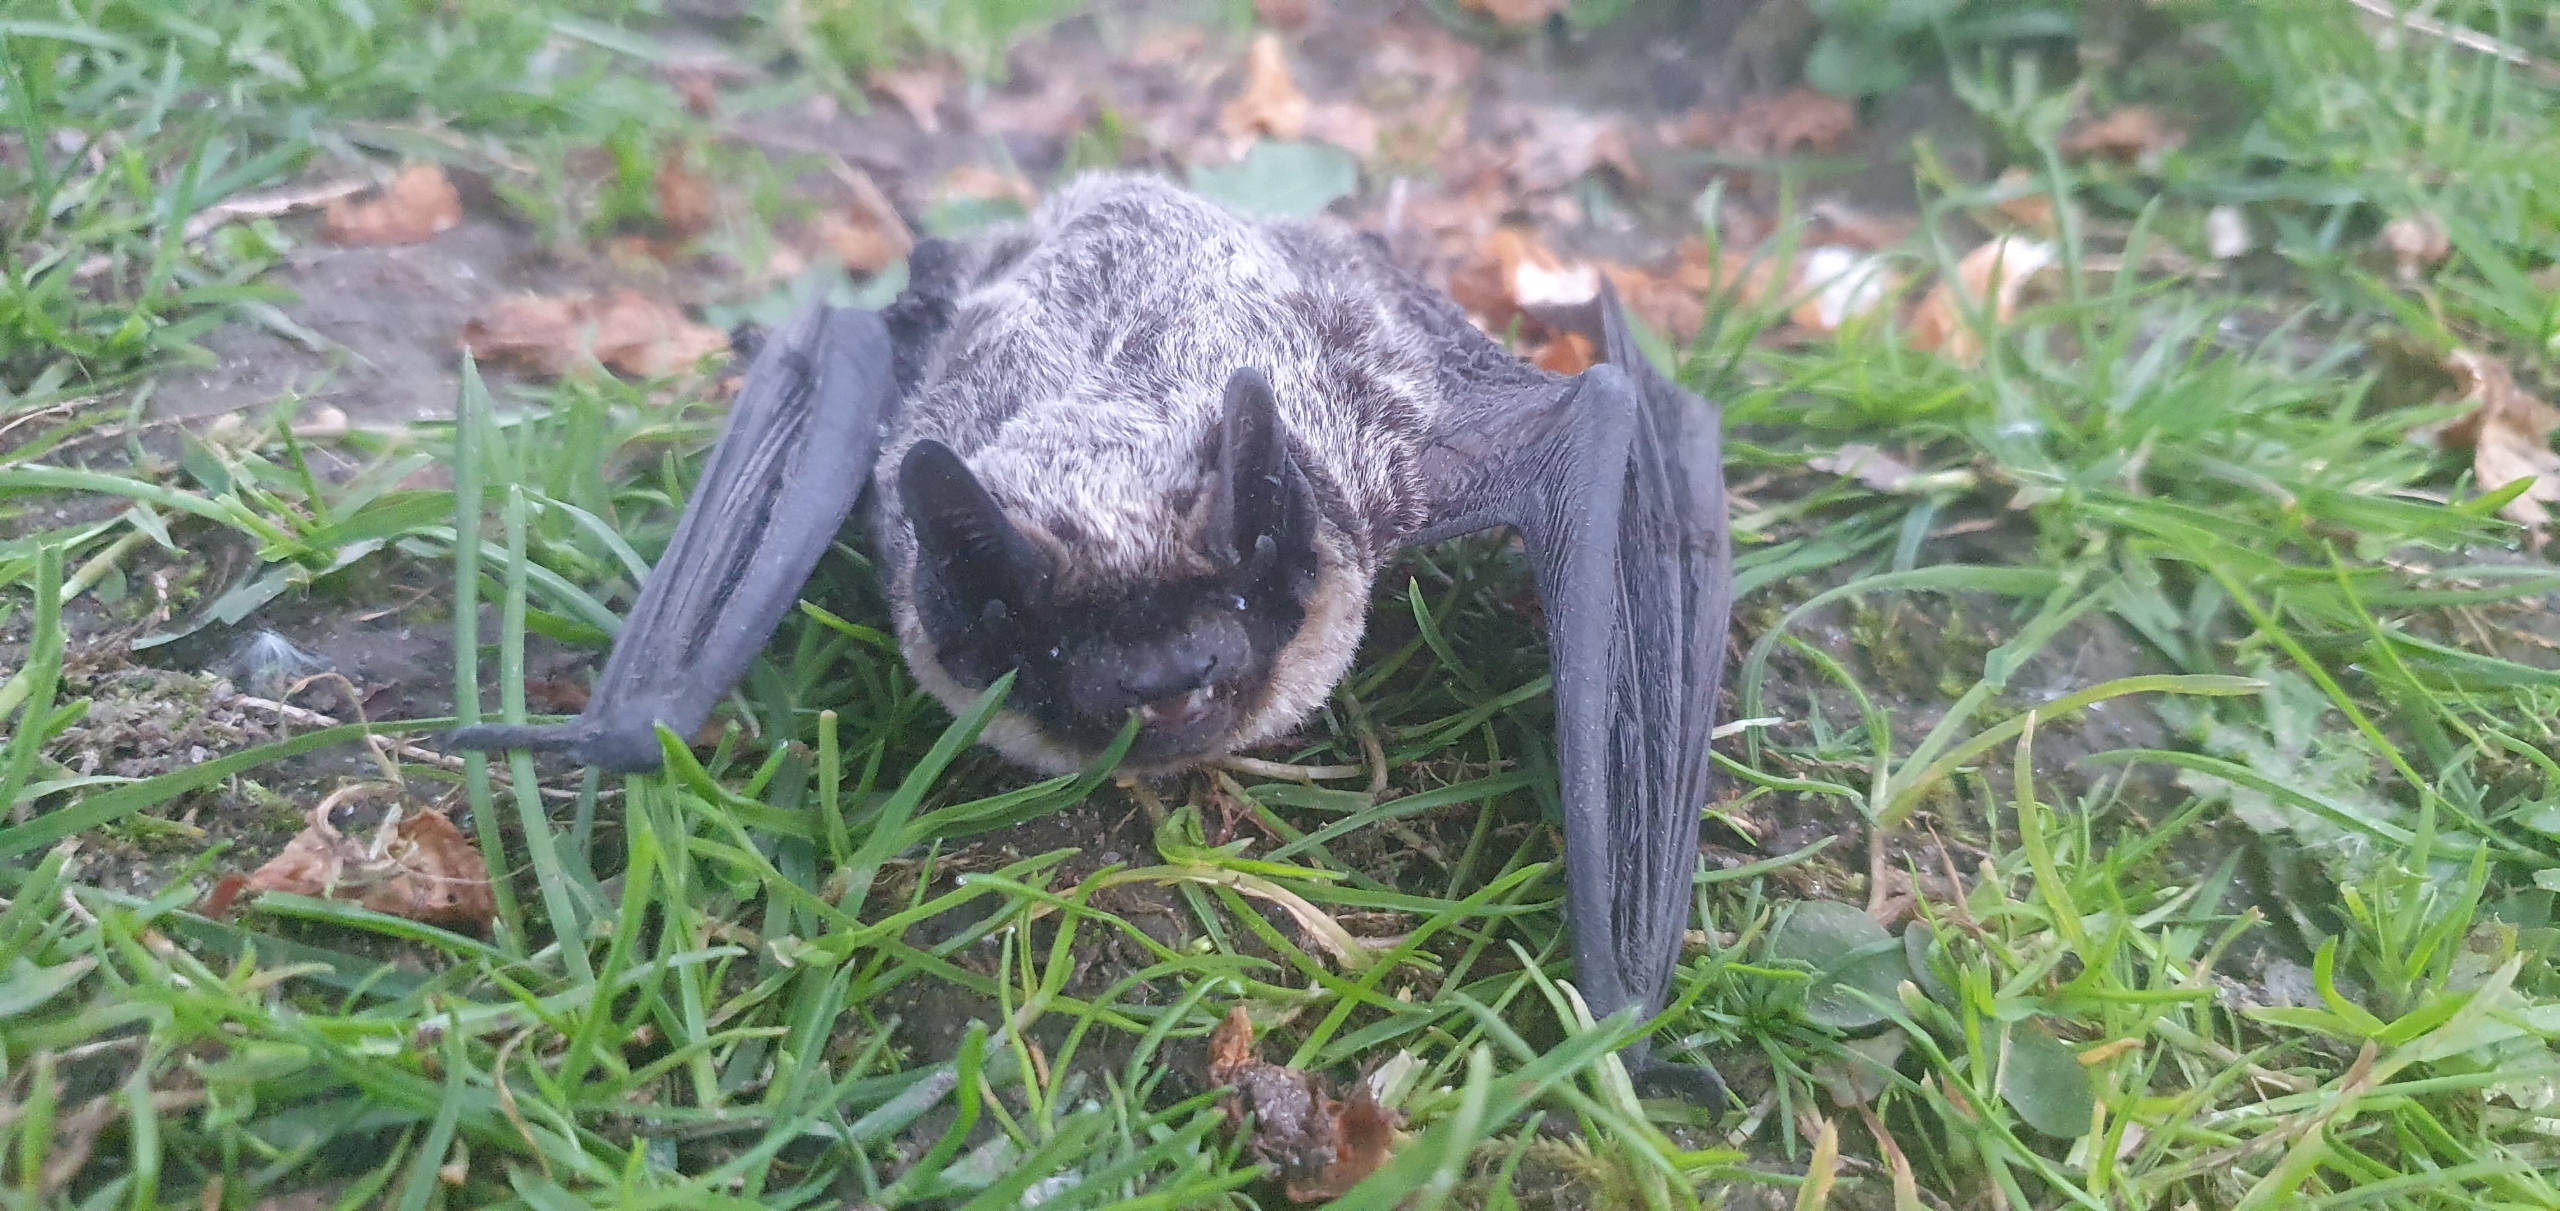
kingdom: Animalia
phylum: Chordata
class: Mammalia
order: Chiroptera
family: Vespertilionidae
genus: Vespertilio
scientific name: Vespertilio murinus
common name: Skimmelflagermus
